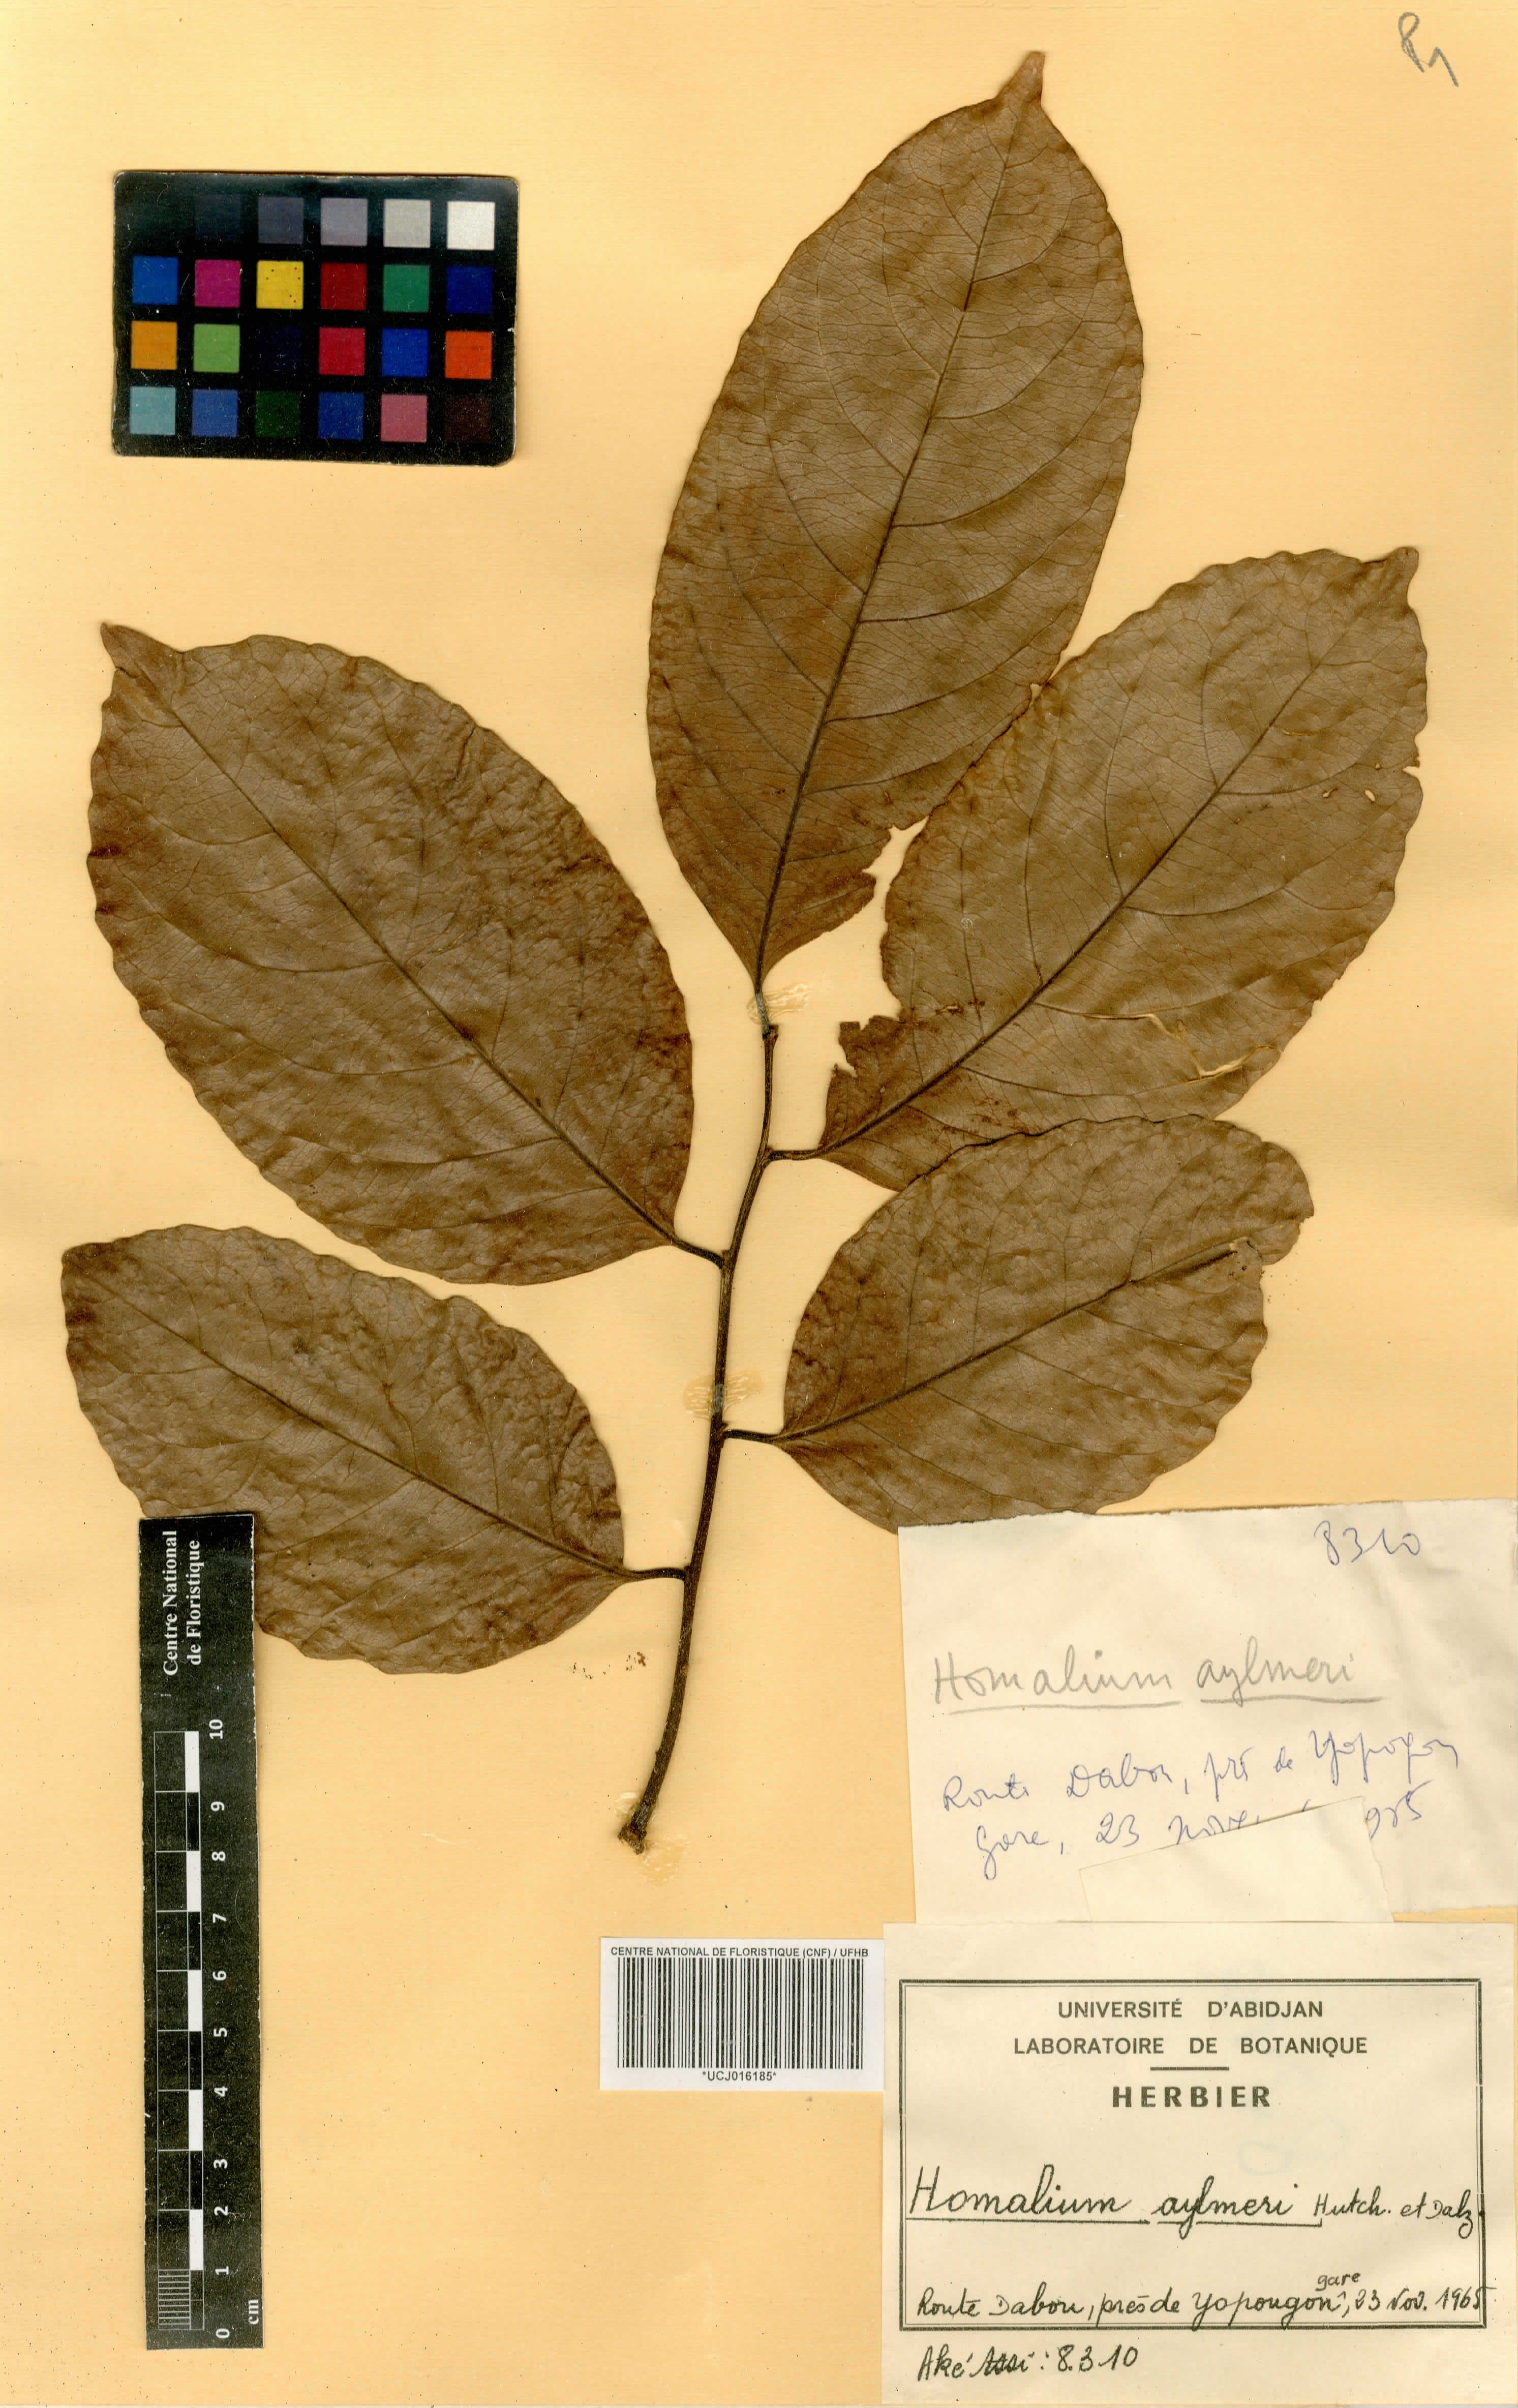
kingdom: Plantae
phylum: Tracheophyta
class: Magnoliopsida
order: Malpighiales
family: Salicaceae
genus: Homalium
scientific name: Homalium longistylum
